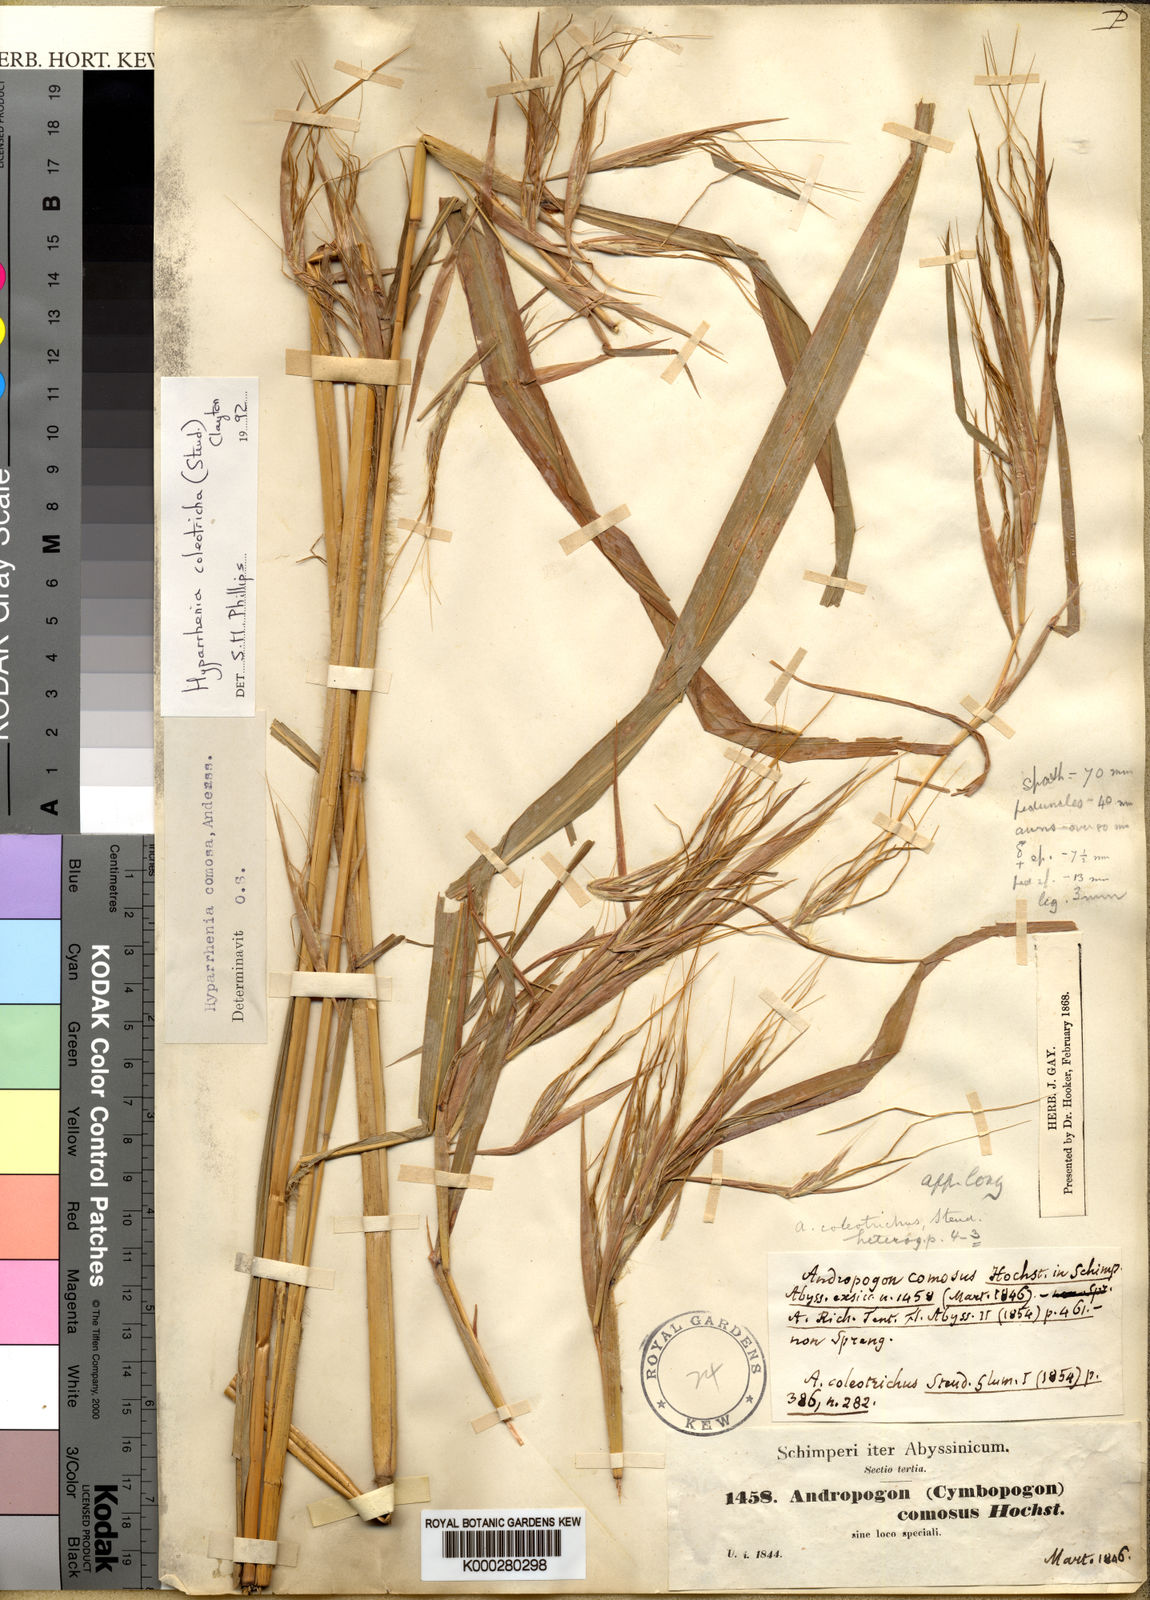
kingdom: Plantae
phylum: Tracheophyta
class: Liliopsida
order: Poales
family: Poaceae
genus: Hyparrhenia
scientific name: Hyparrhenia coleotricha
